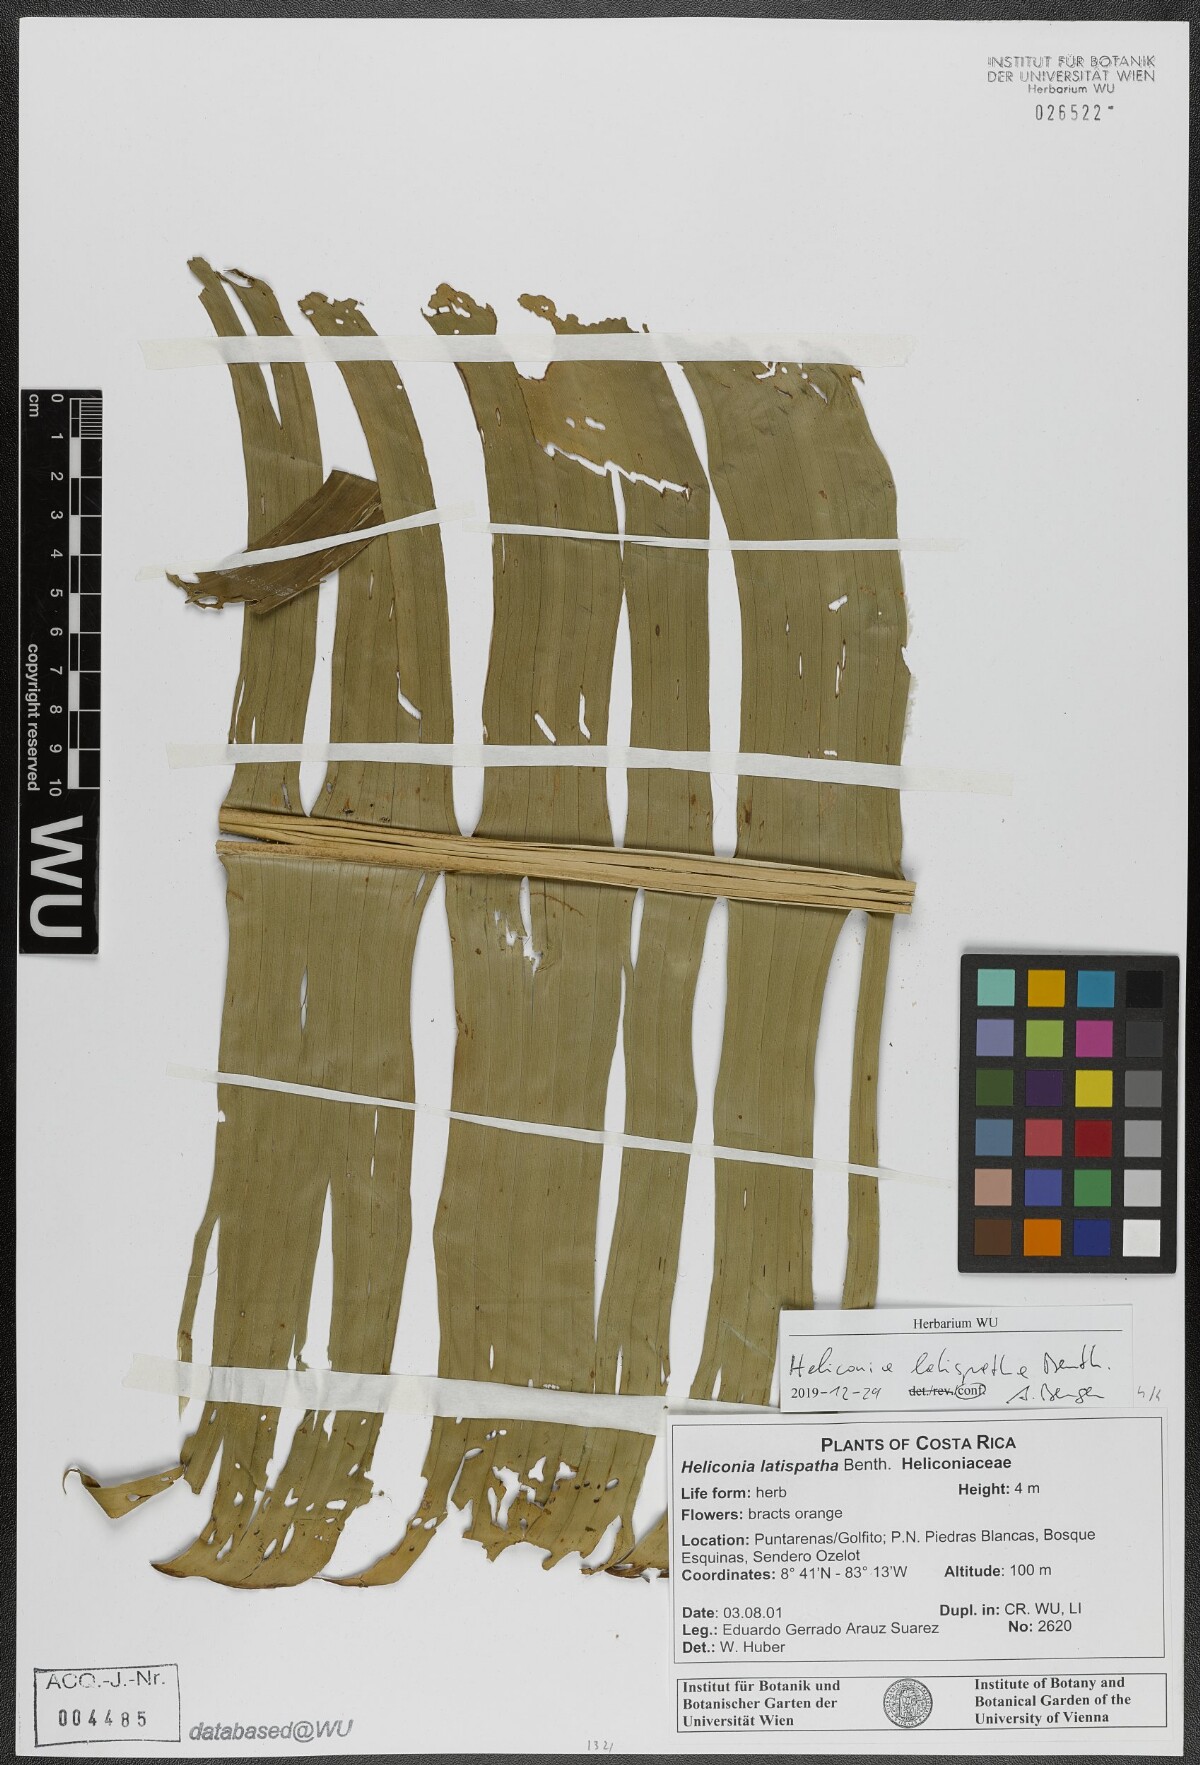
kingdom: Plantae
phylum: Tracheophyta
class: Liliopsida
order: Zingiberales
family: Heliconiaceae
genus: Heliconia
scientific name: Heliconia latispatha
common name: Expanded lobsterclaw
